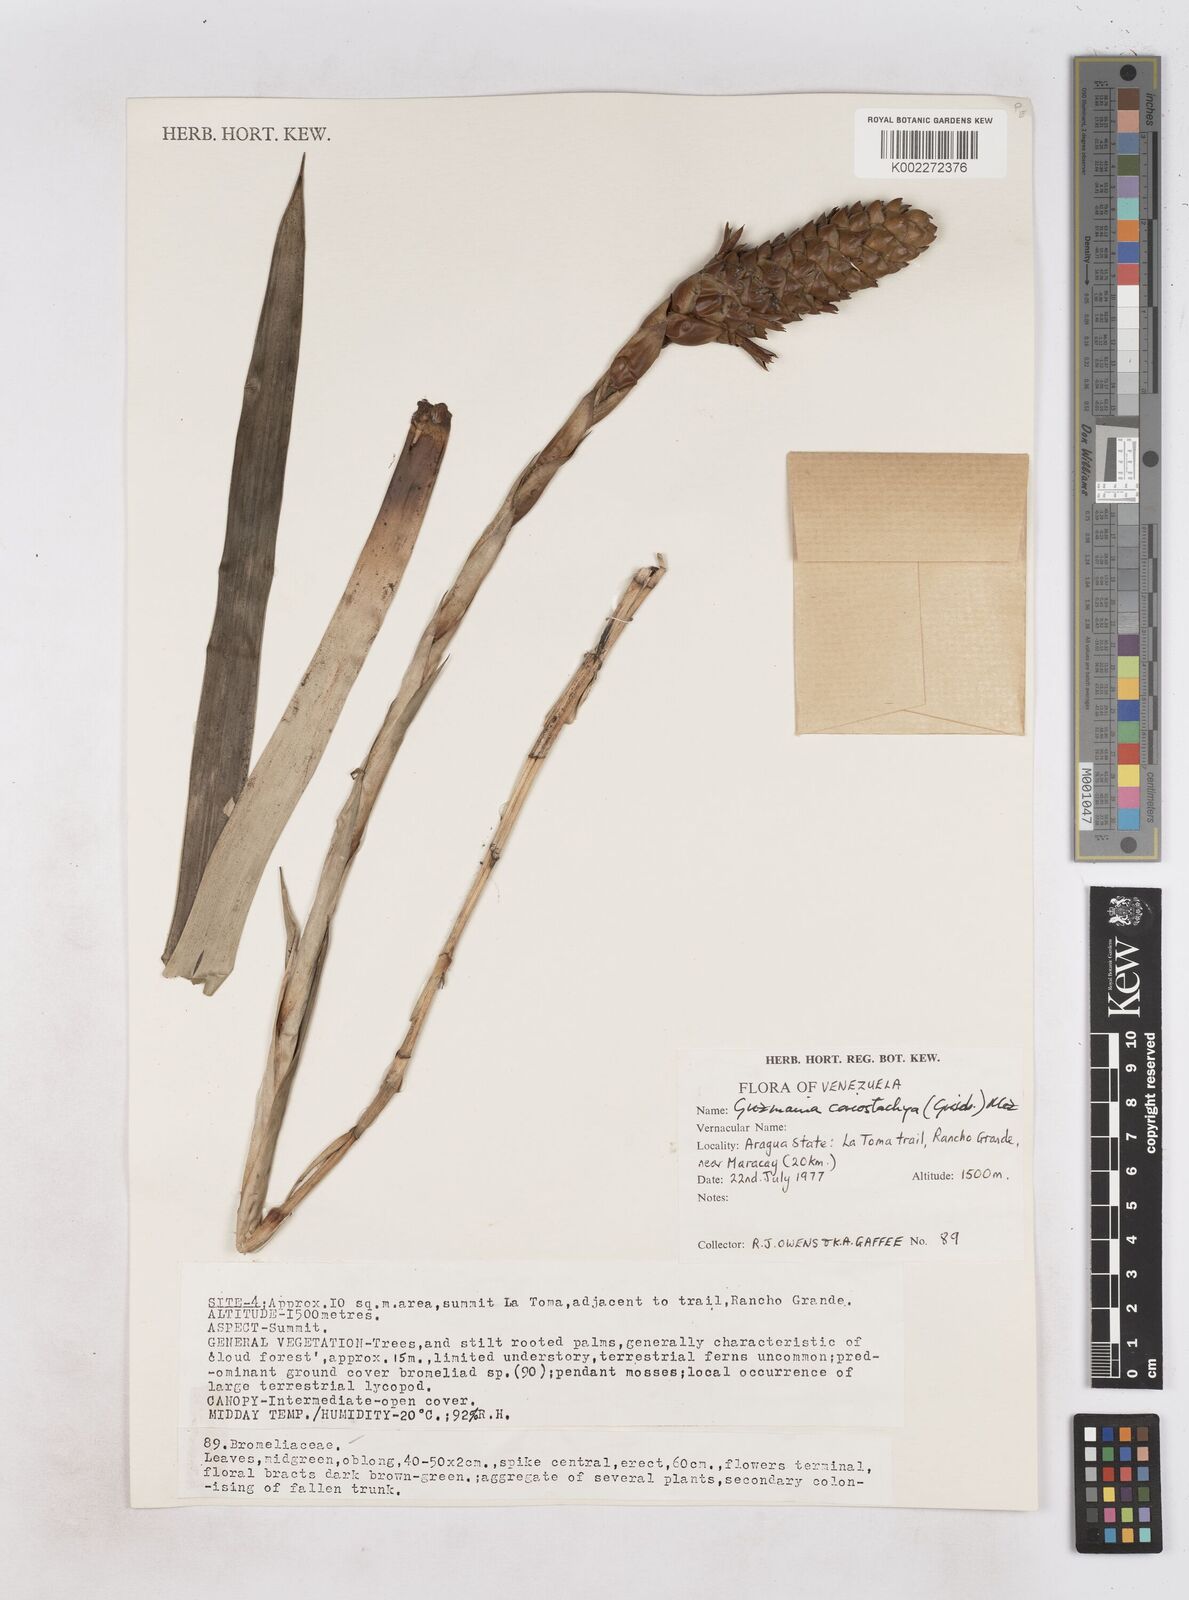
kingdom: Plantae
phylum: Tracheophyta
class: Liliopsida
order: Poales
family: Bromeliaceae
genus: Guzmania
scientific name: Guzmania coriostachya
